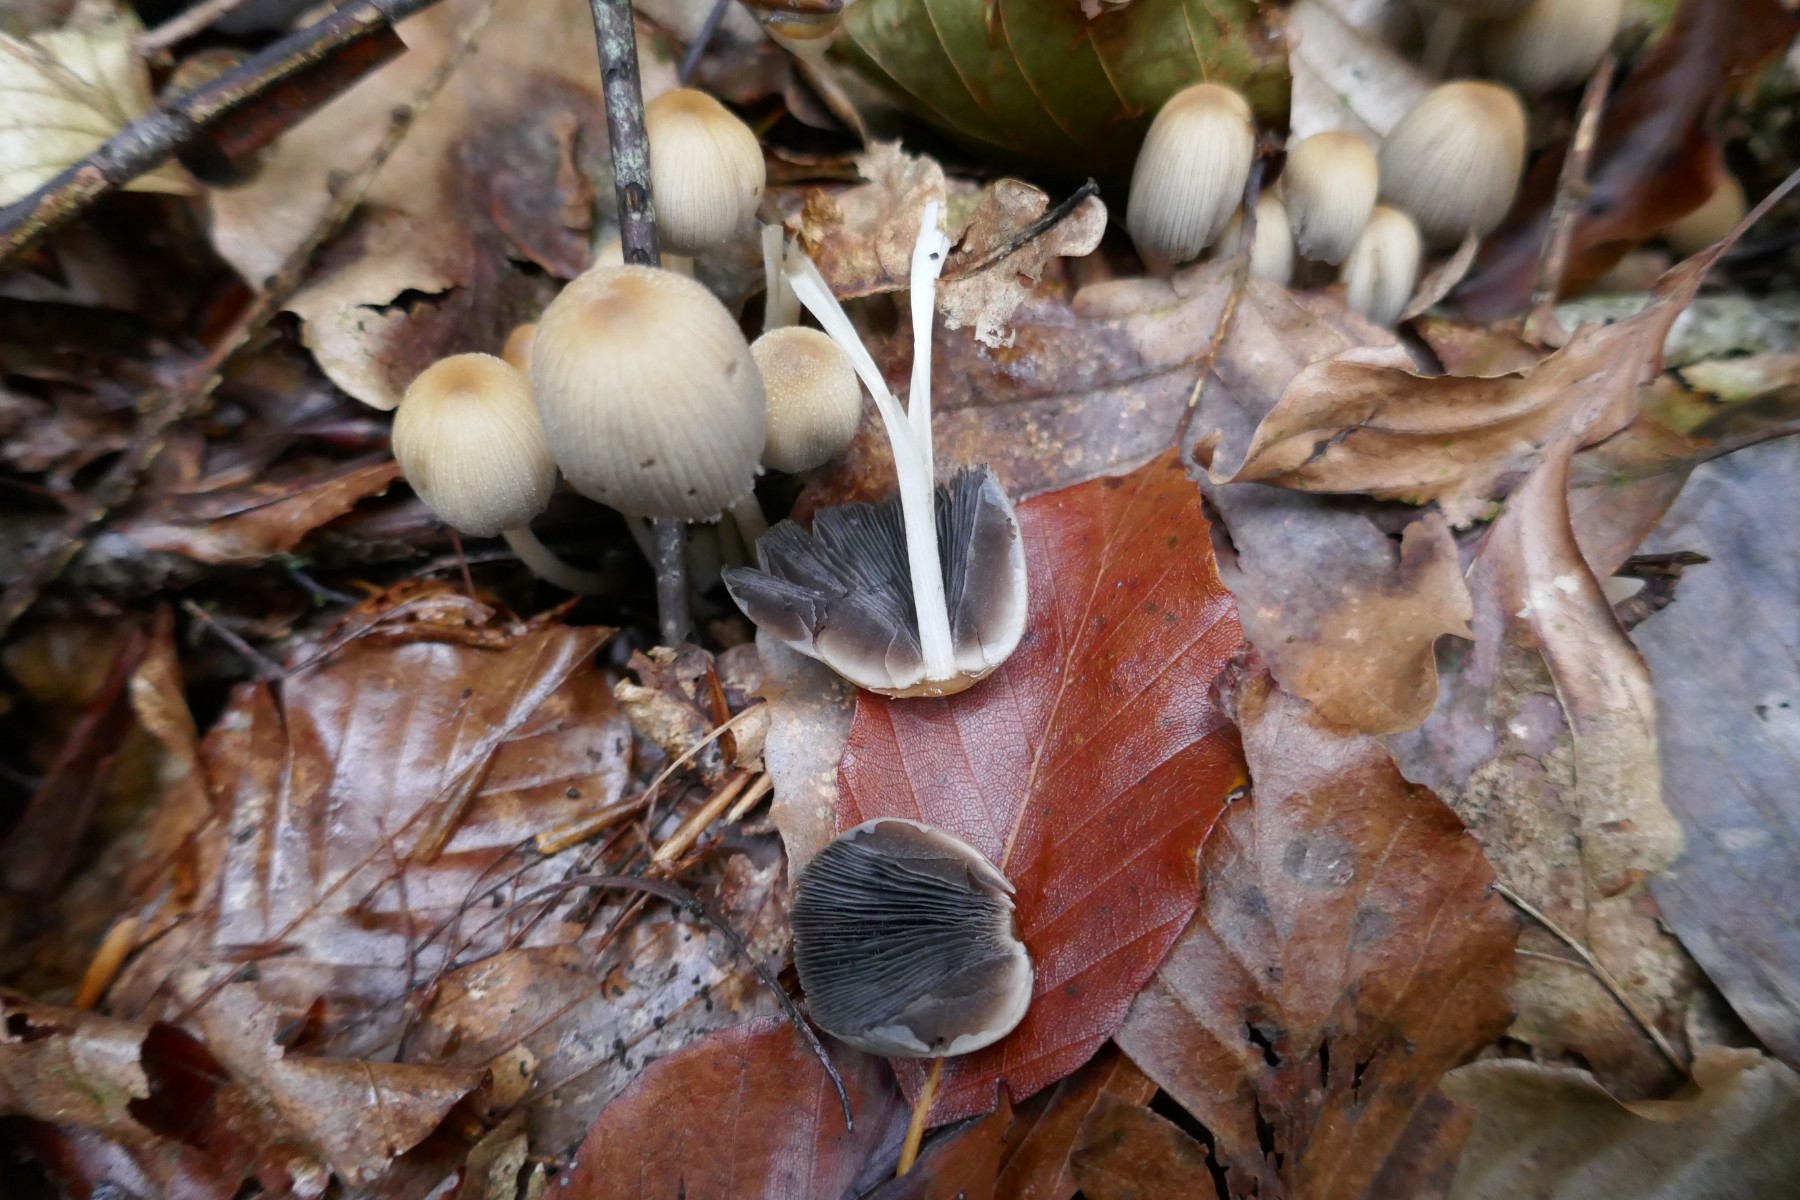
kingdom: Fungi
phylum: Basidiomycota
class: Agaricomycetes
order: Agaricales
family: Psathyrellaceae
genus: Coprinellus
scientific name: Coprinellus micaceus
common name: glimmer-blækhat
